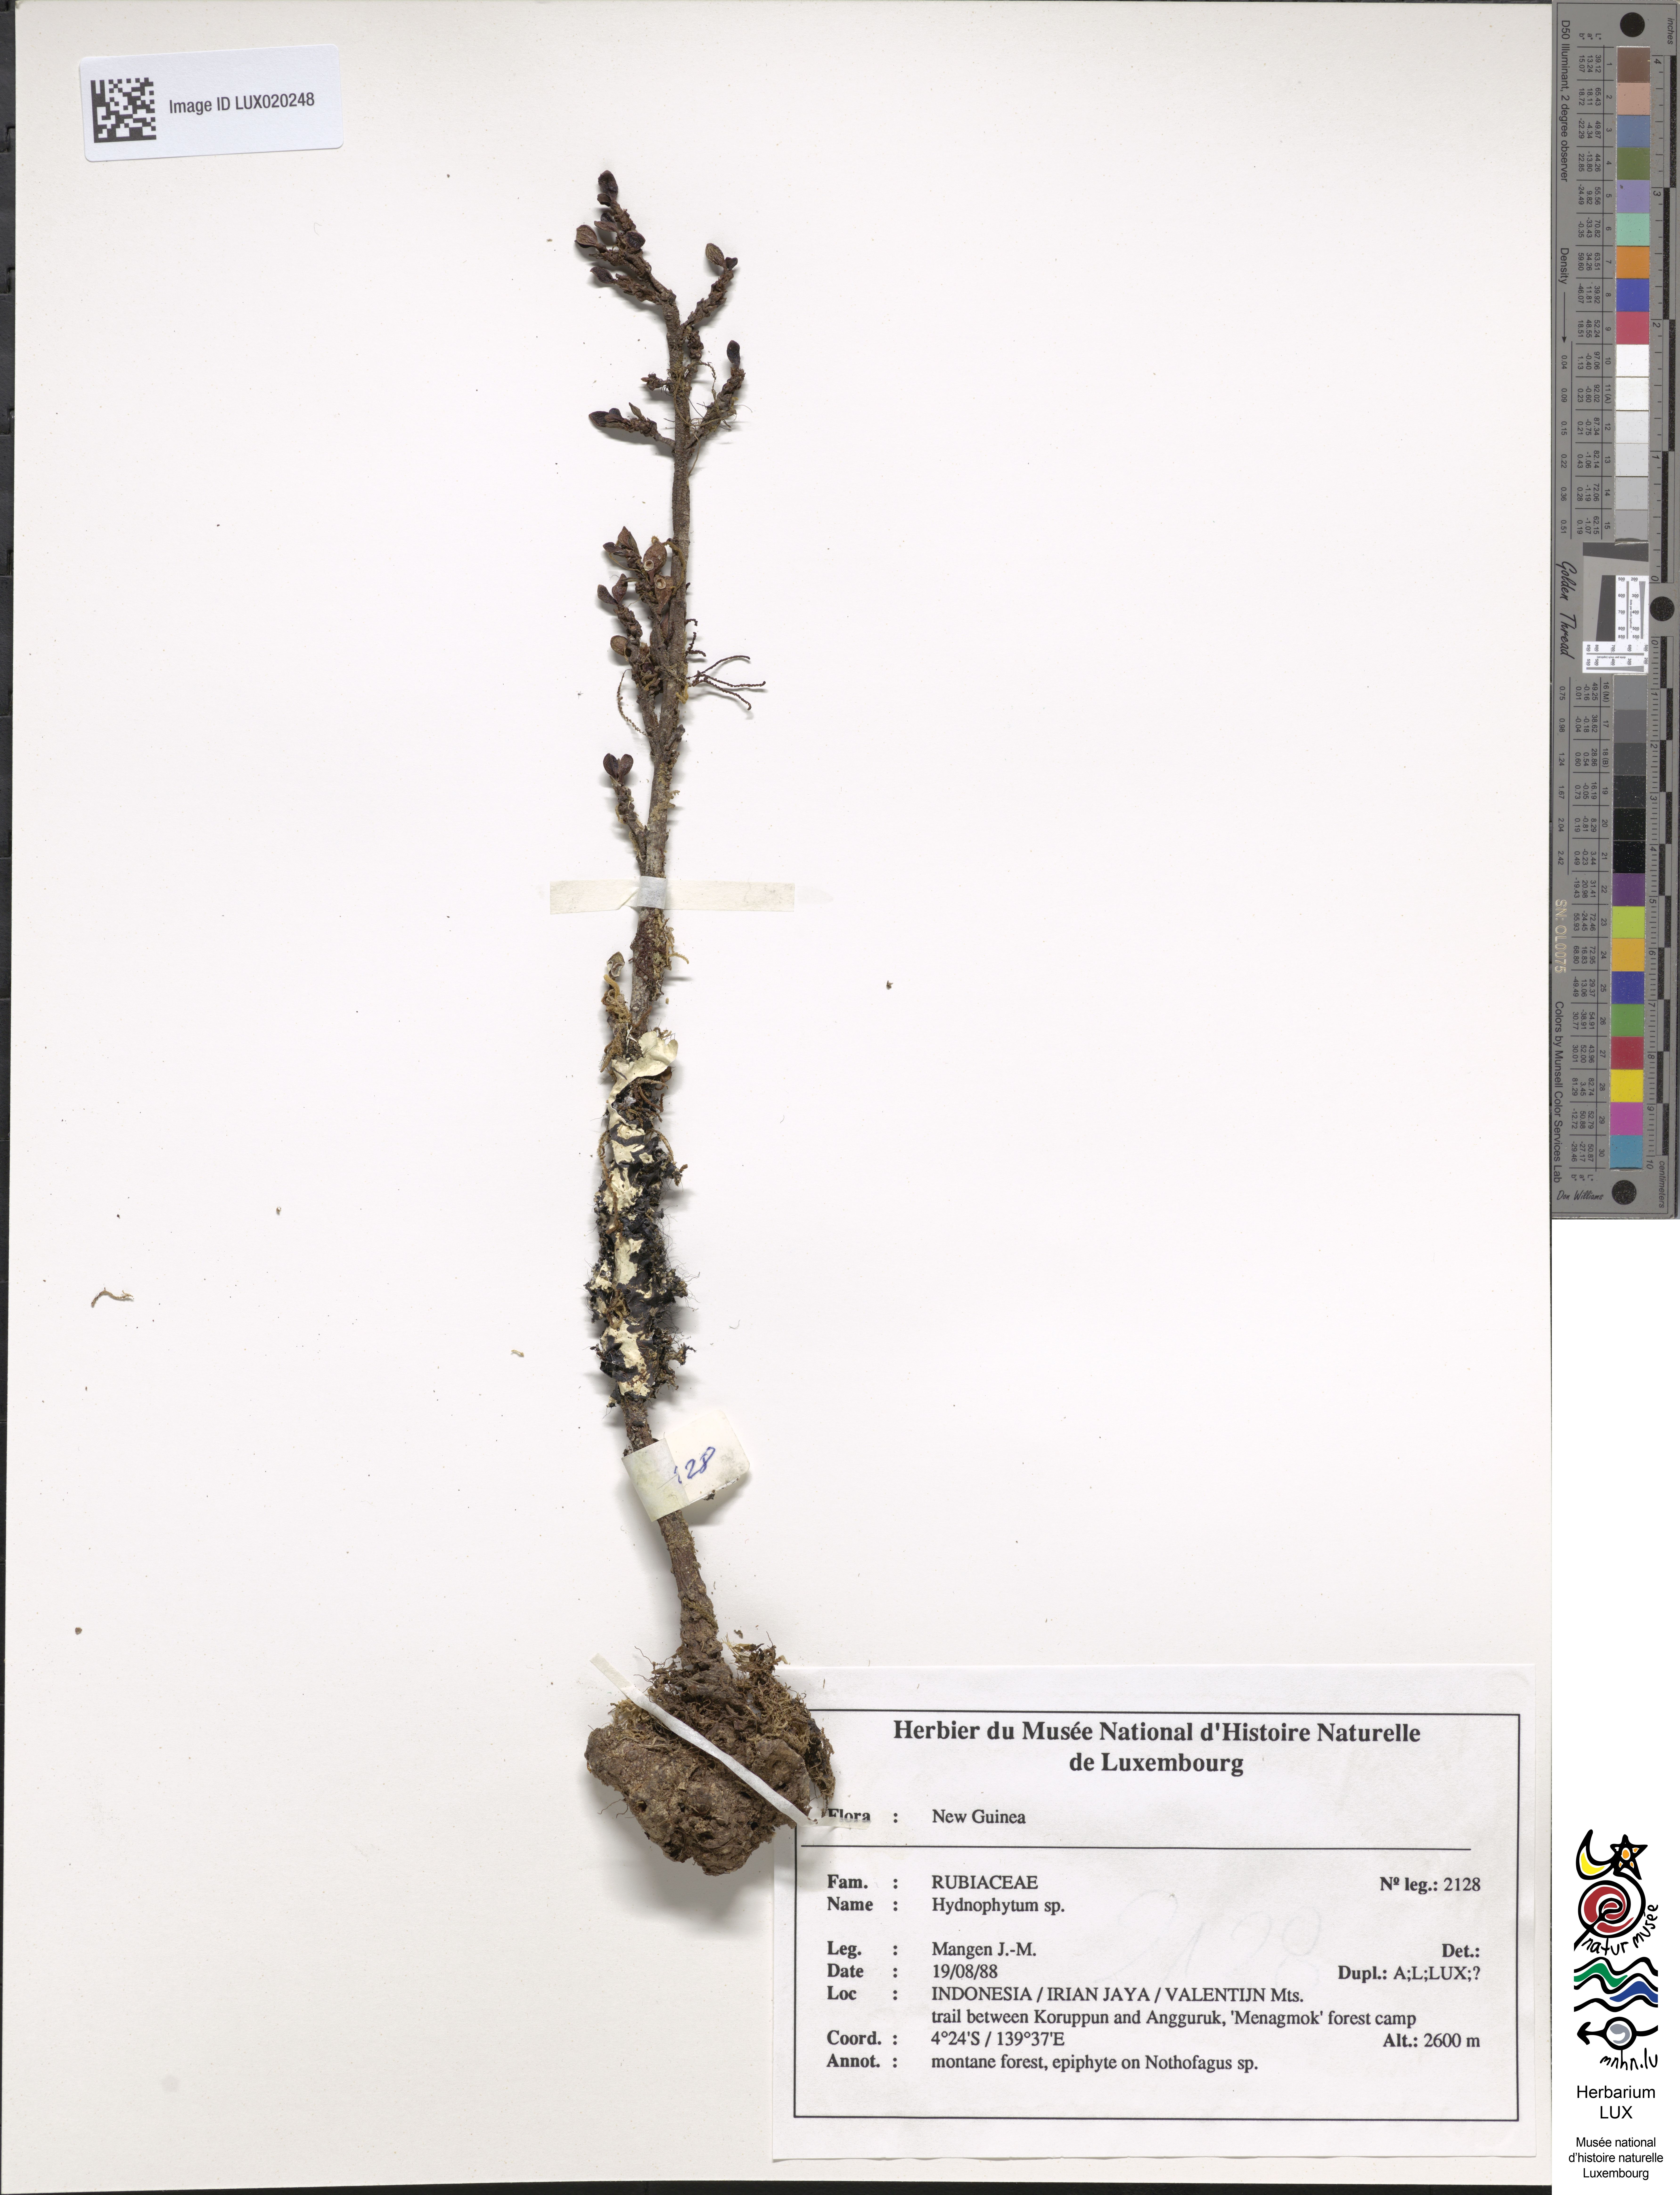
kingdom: Plantae
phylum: Tracheophyta
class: Magnoliopsida
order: Gentianales
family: Rubiaceae
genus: Hydnophytum
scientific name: Hydnophytum
